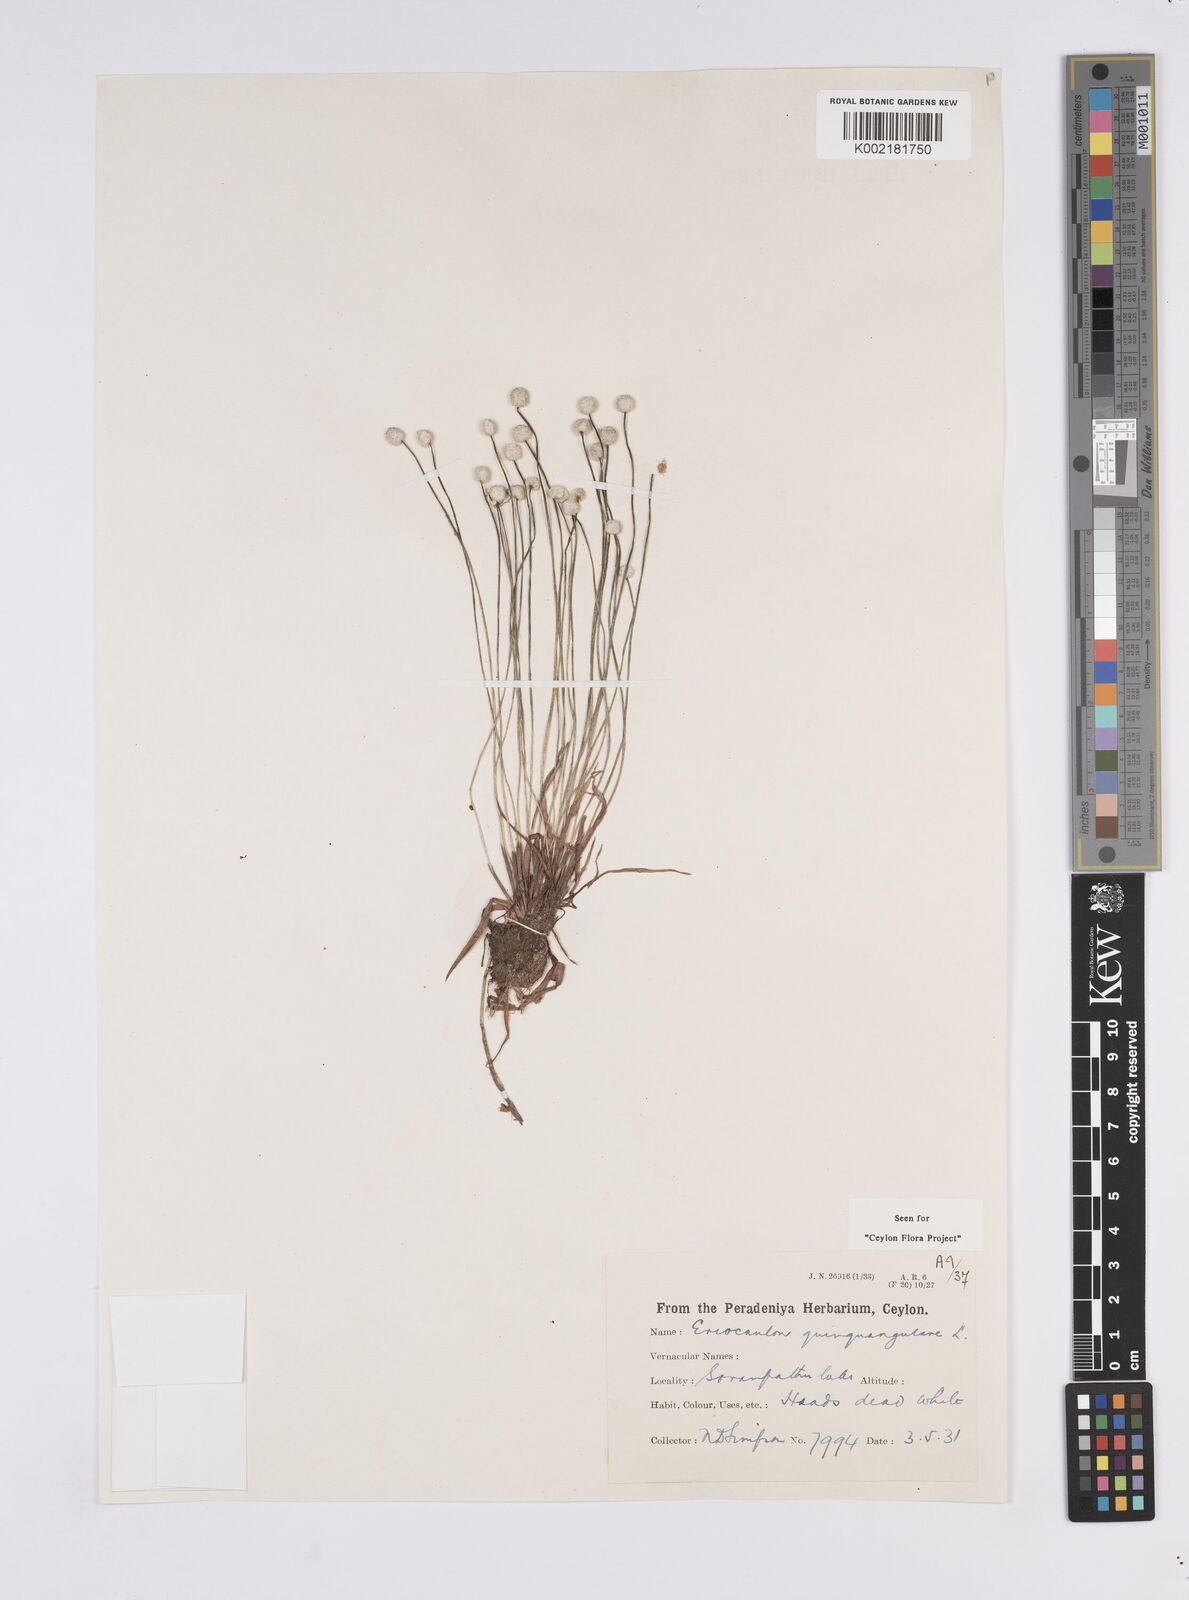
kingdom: Plantae
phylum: Tracheophyta
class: Liliopsida
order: Poales
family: Eriocaulaceae
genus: Eriocaulon
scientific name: Eriocaulon quinquangulare
